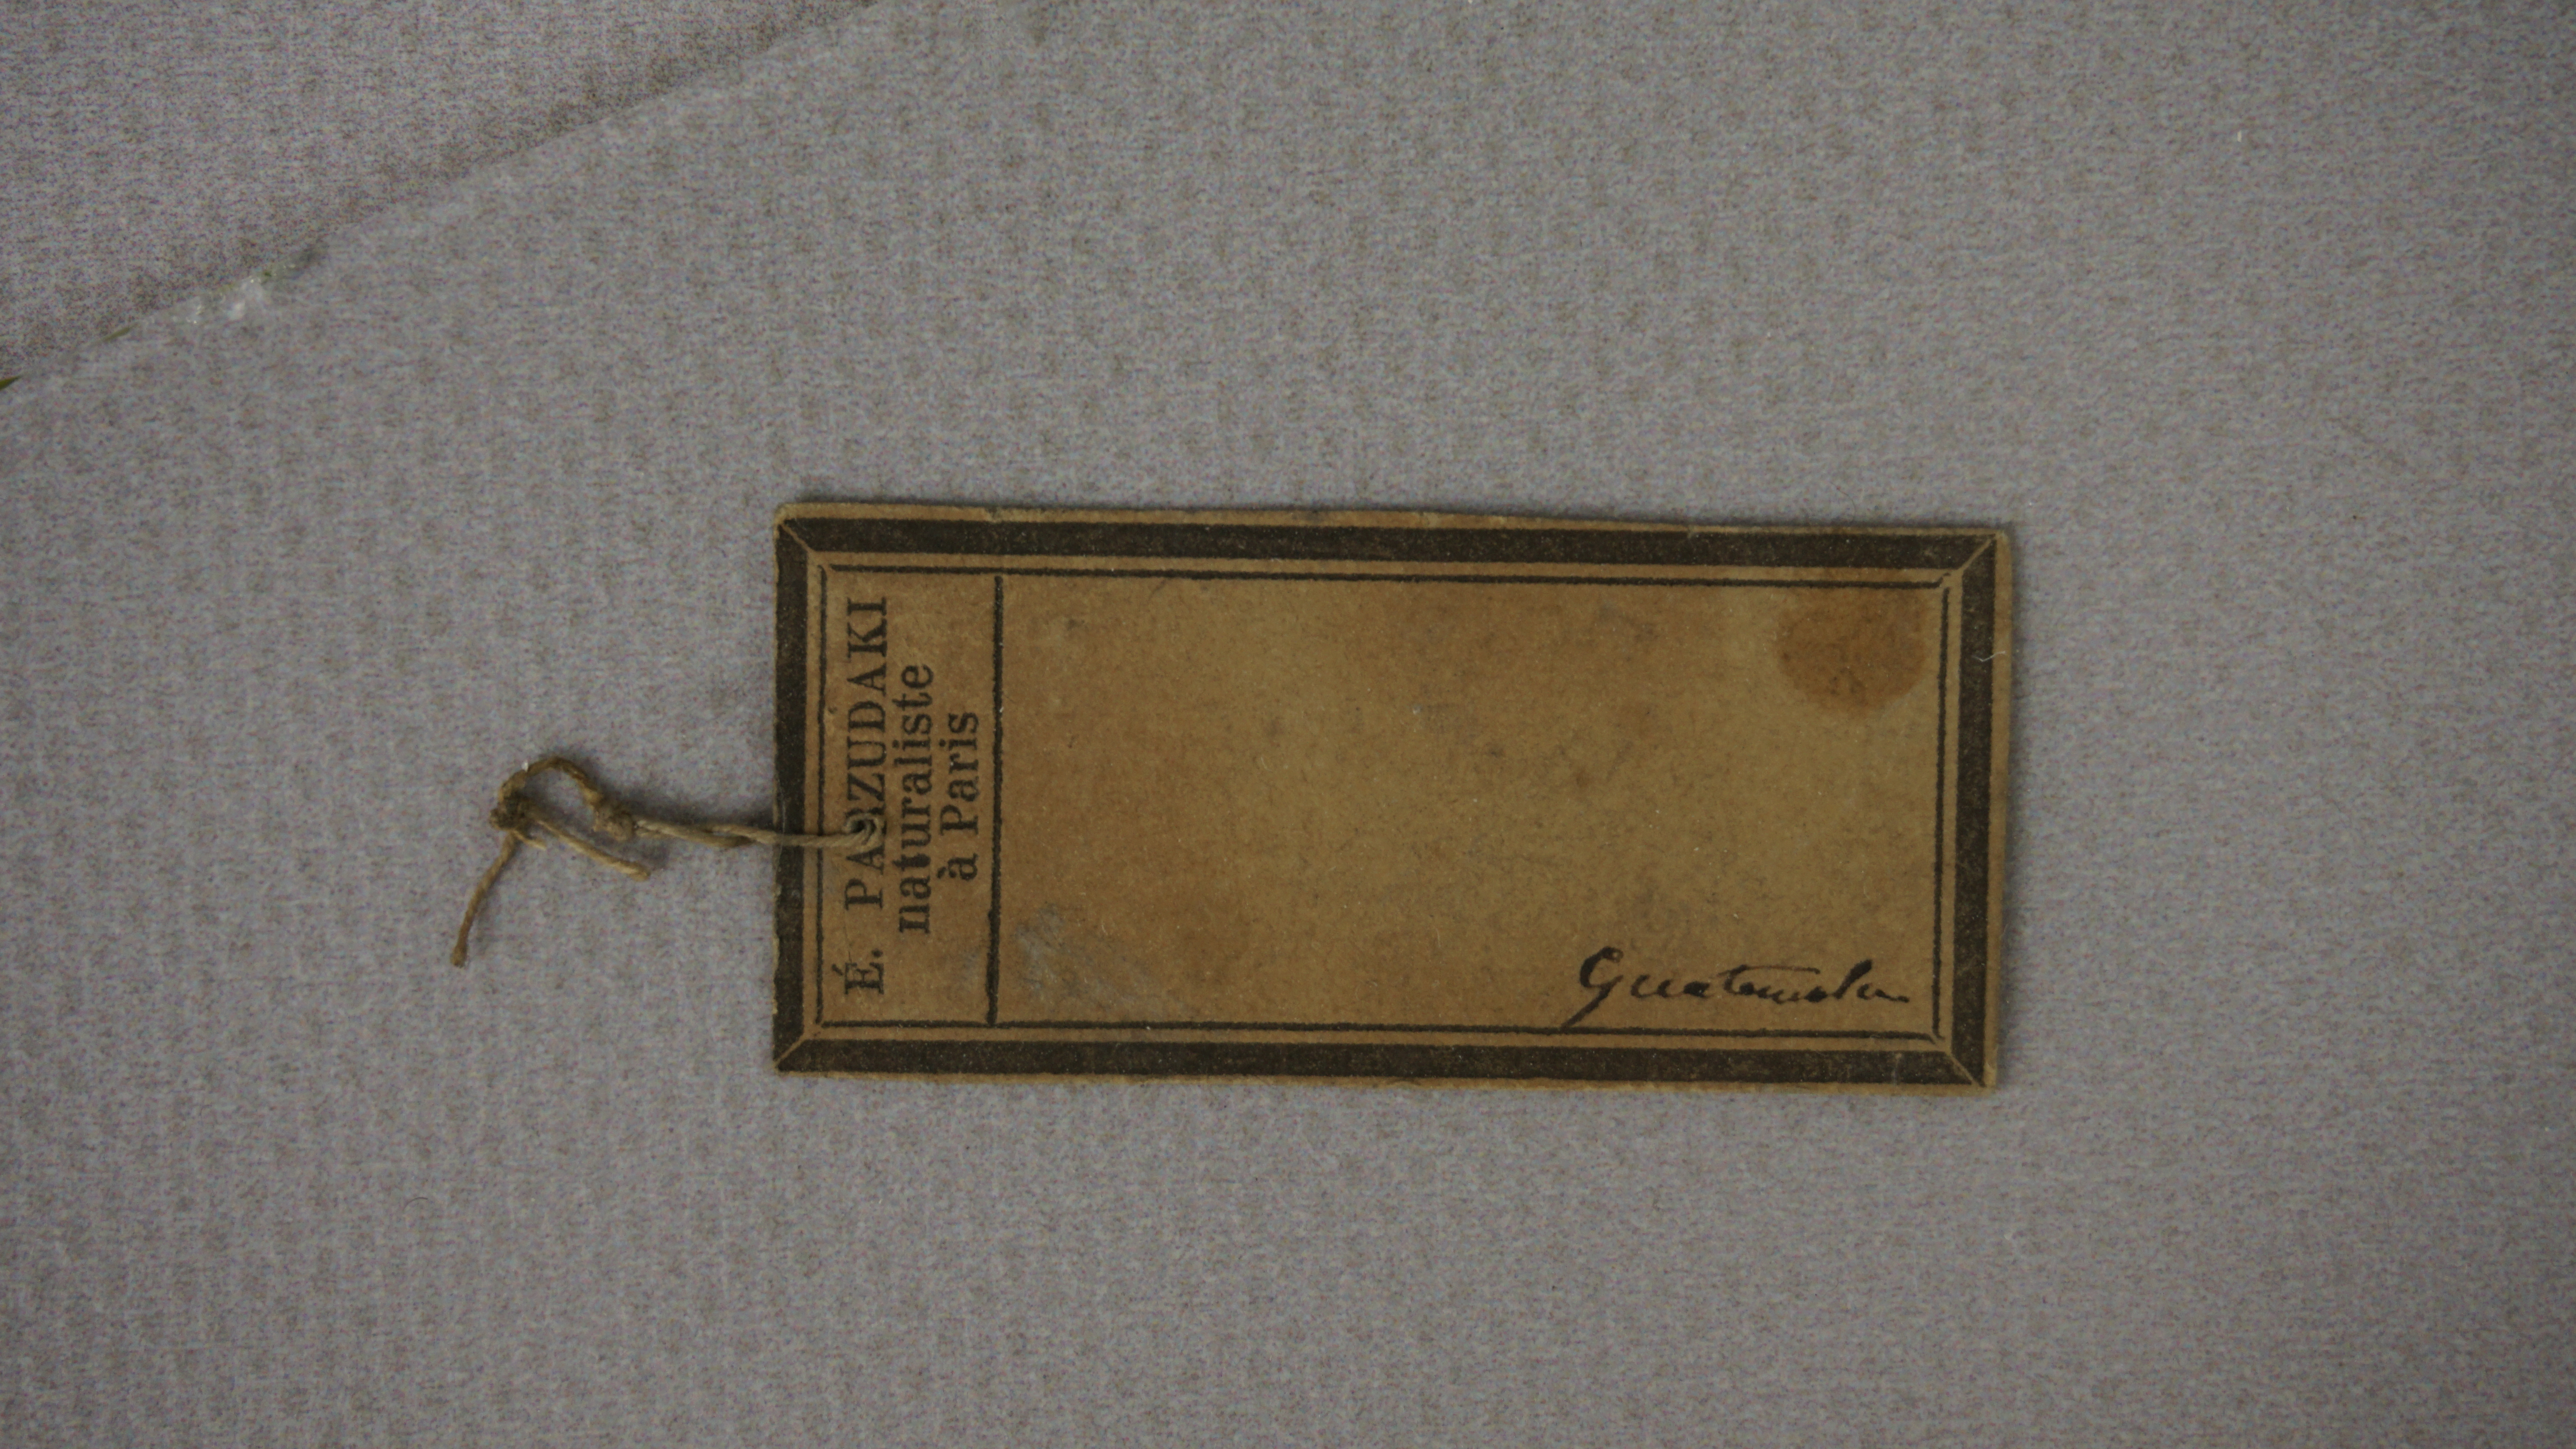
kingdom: Animalia
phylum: Chordata
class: Aves
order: Passeriformes
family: Cardinalidae
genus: Piranga
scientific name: Piranga bidentata
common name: Flame-colored tanager
